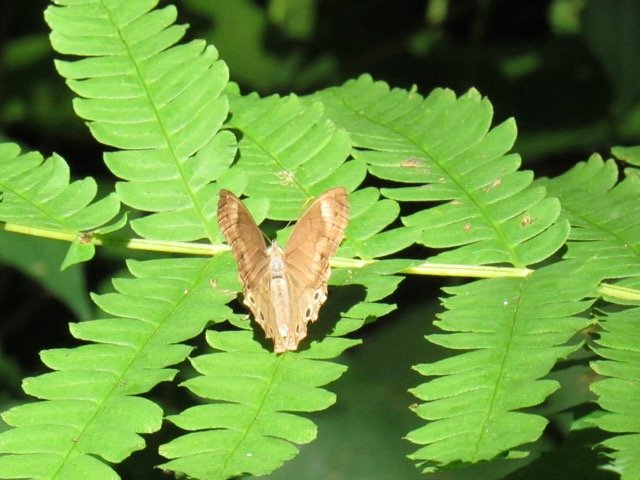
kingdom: Animalia
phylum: Arthropoda
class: Insecta
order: Lepidoptera
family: Nymphalidae
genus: Lethe
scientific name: Lethe eurydice
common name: Appalachian Eyed Brown
